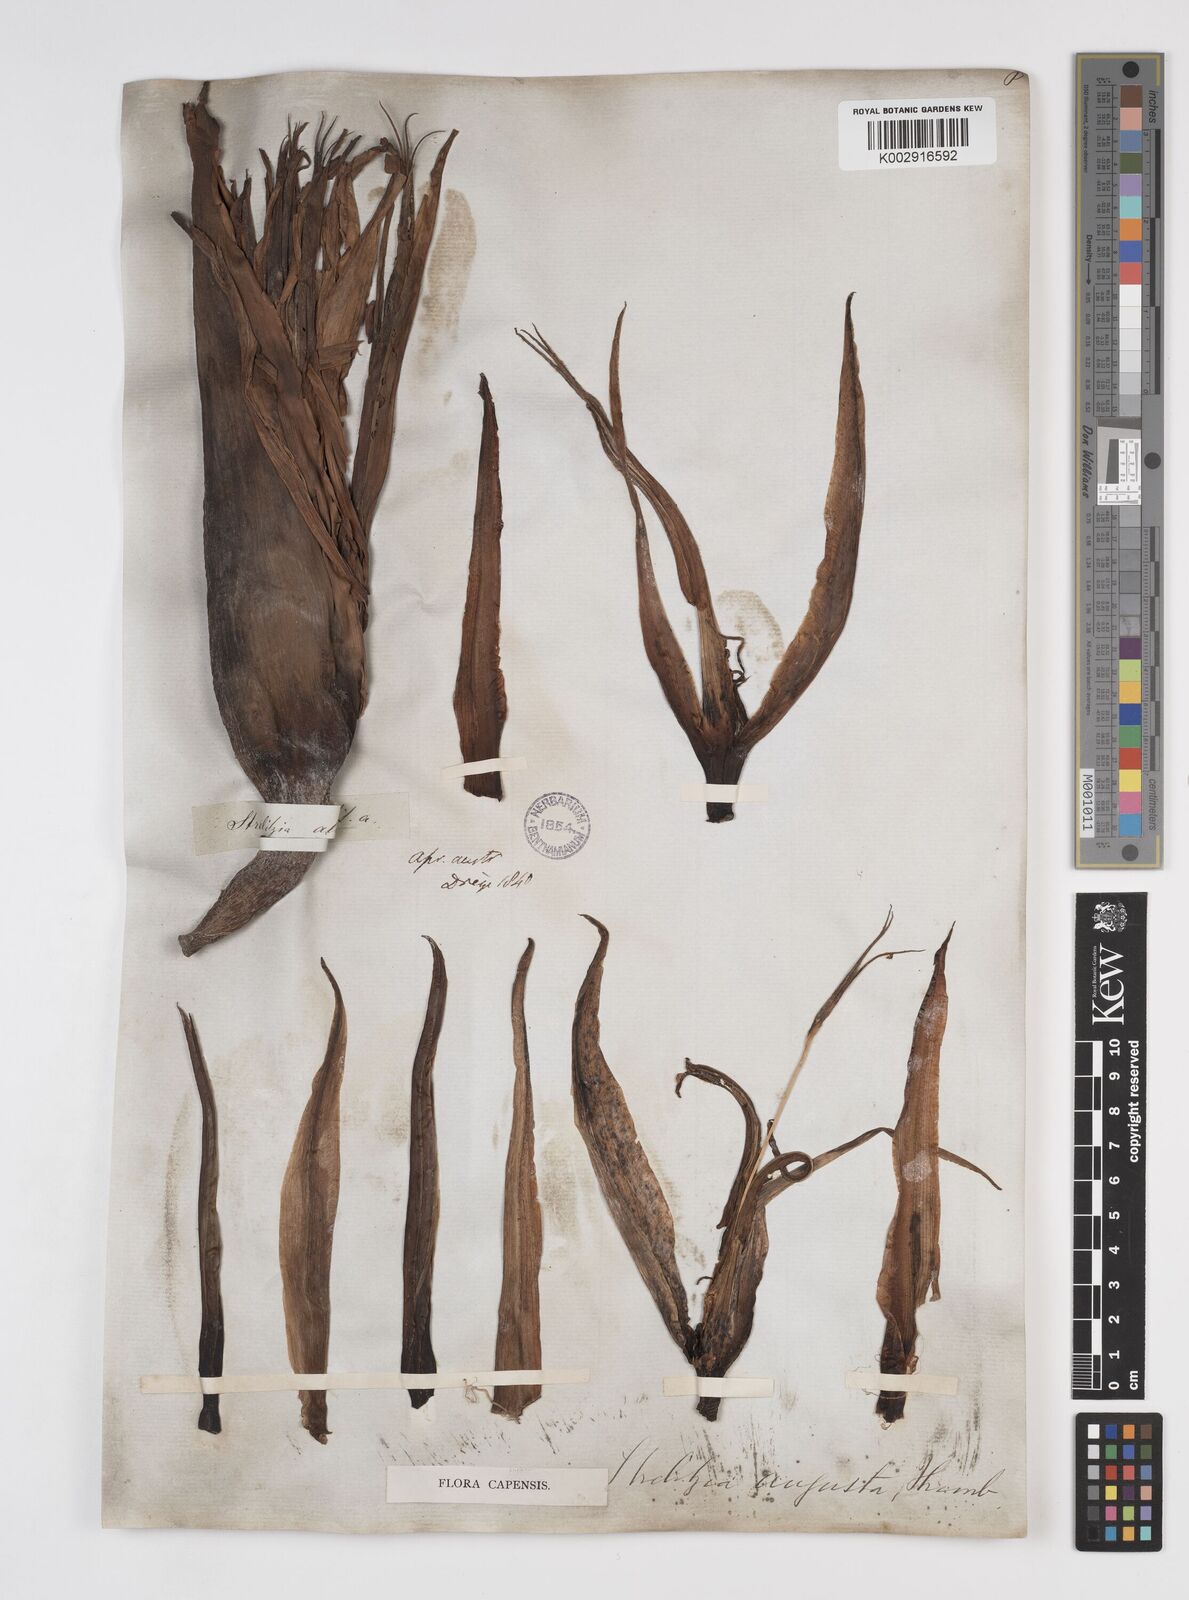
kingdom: Plantae
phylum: Tracheophyta
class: Liliopsida
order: Zingiberales
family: Strelitziaceae
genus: Strelitzia
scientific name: Strelitzia
